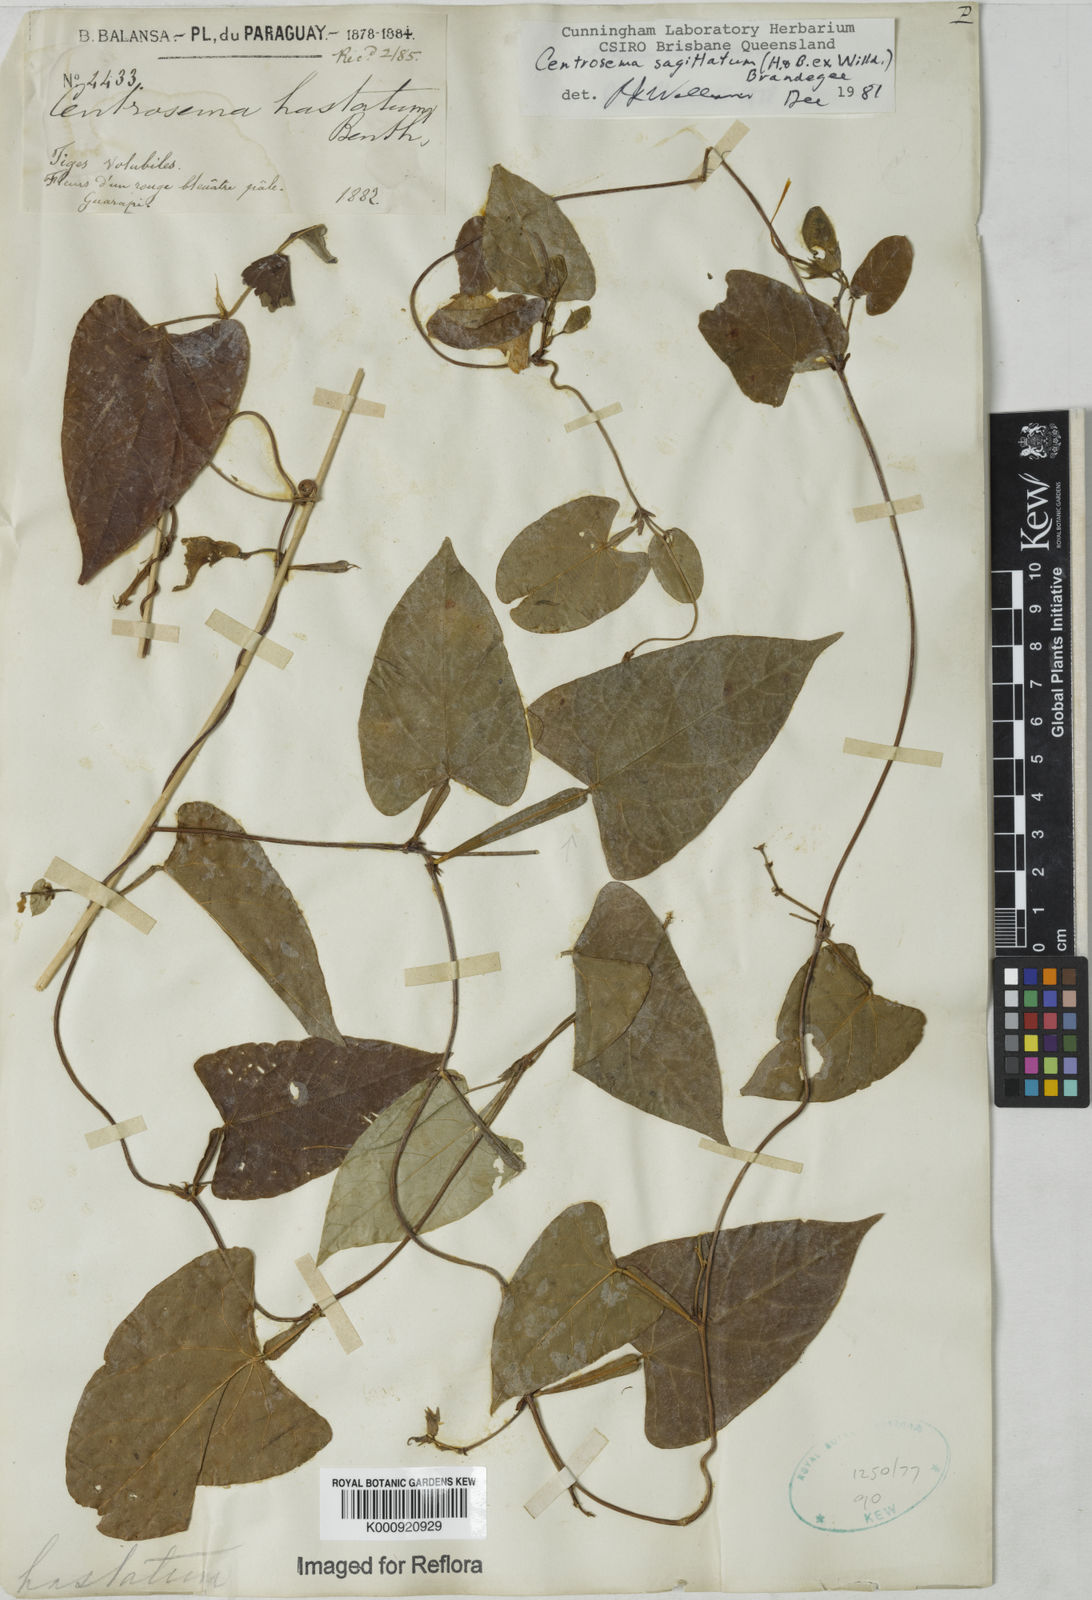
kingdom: Plantae
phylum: Tracheophyta
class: Magnoliopsida
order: Fabales
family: Fabaceae
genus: Centrosema
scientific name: Centrosema sagittatum
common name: Arrowleaf butterfly pea
